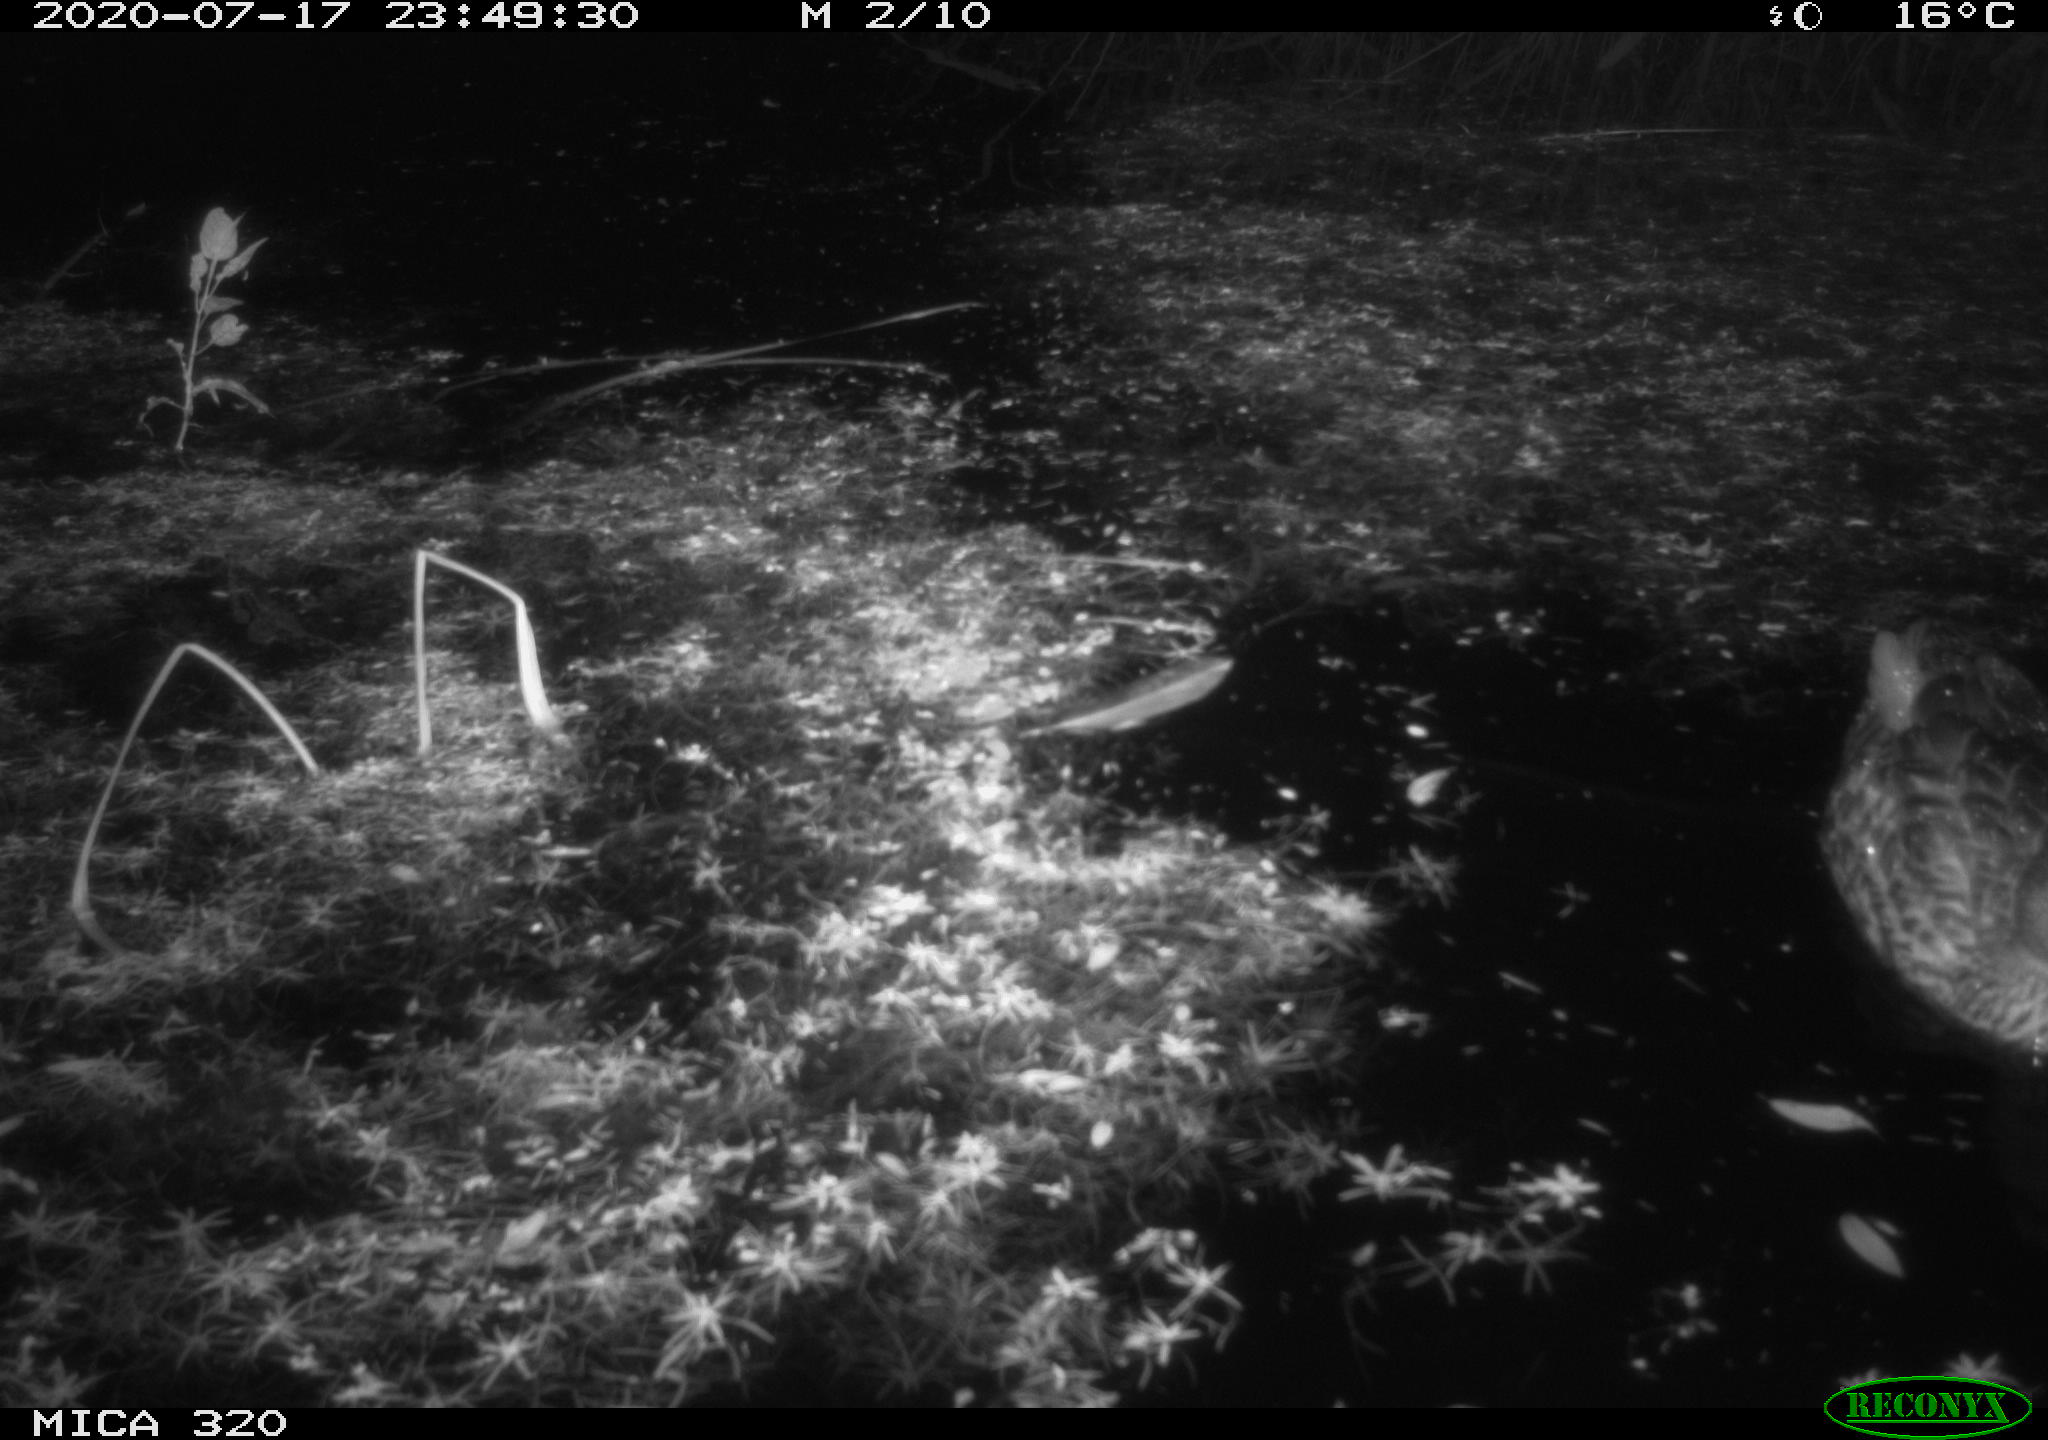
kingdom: Animalia
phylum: Chordata
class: Aves
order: Anseriformes
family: Anatidae
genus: Anas
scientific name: Anas platyrhynchos
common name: Mallard
